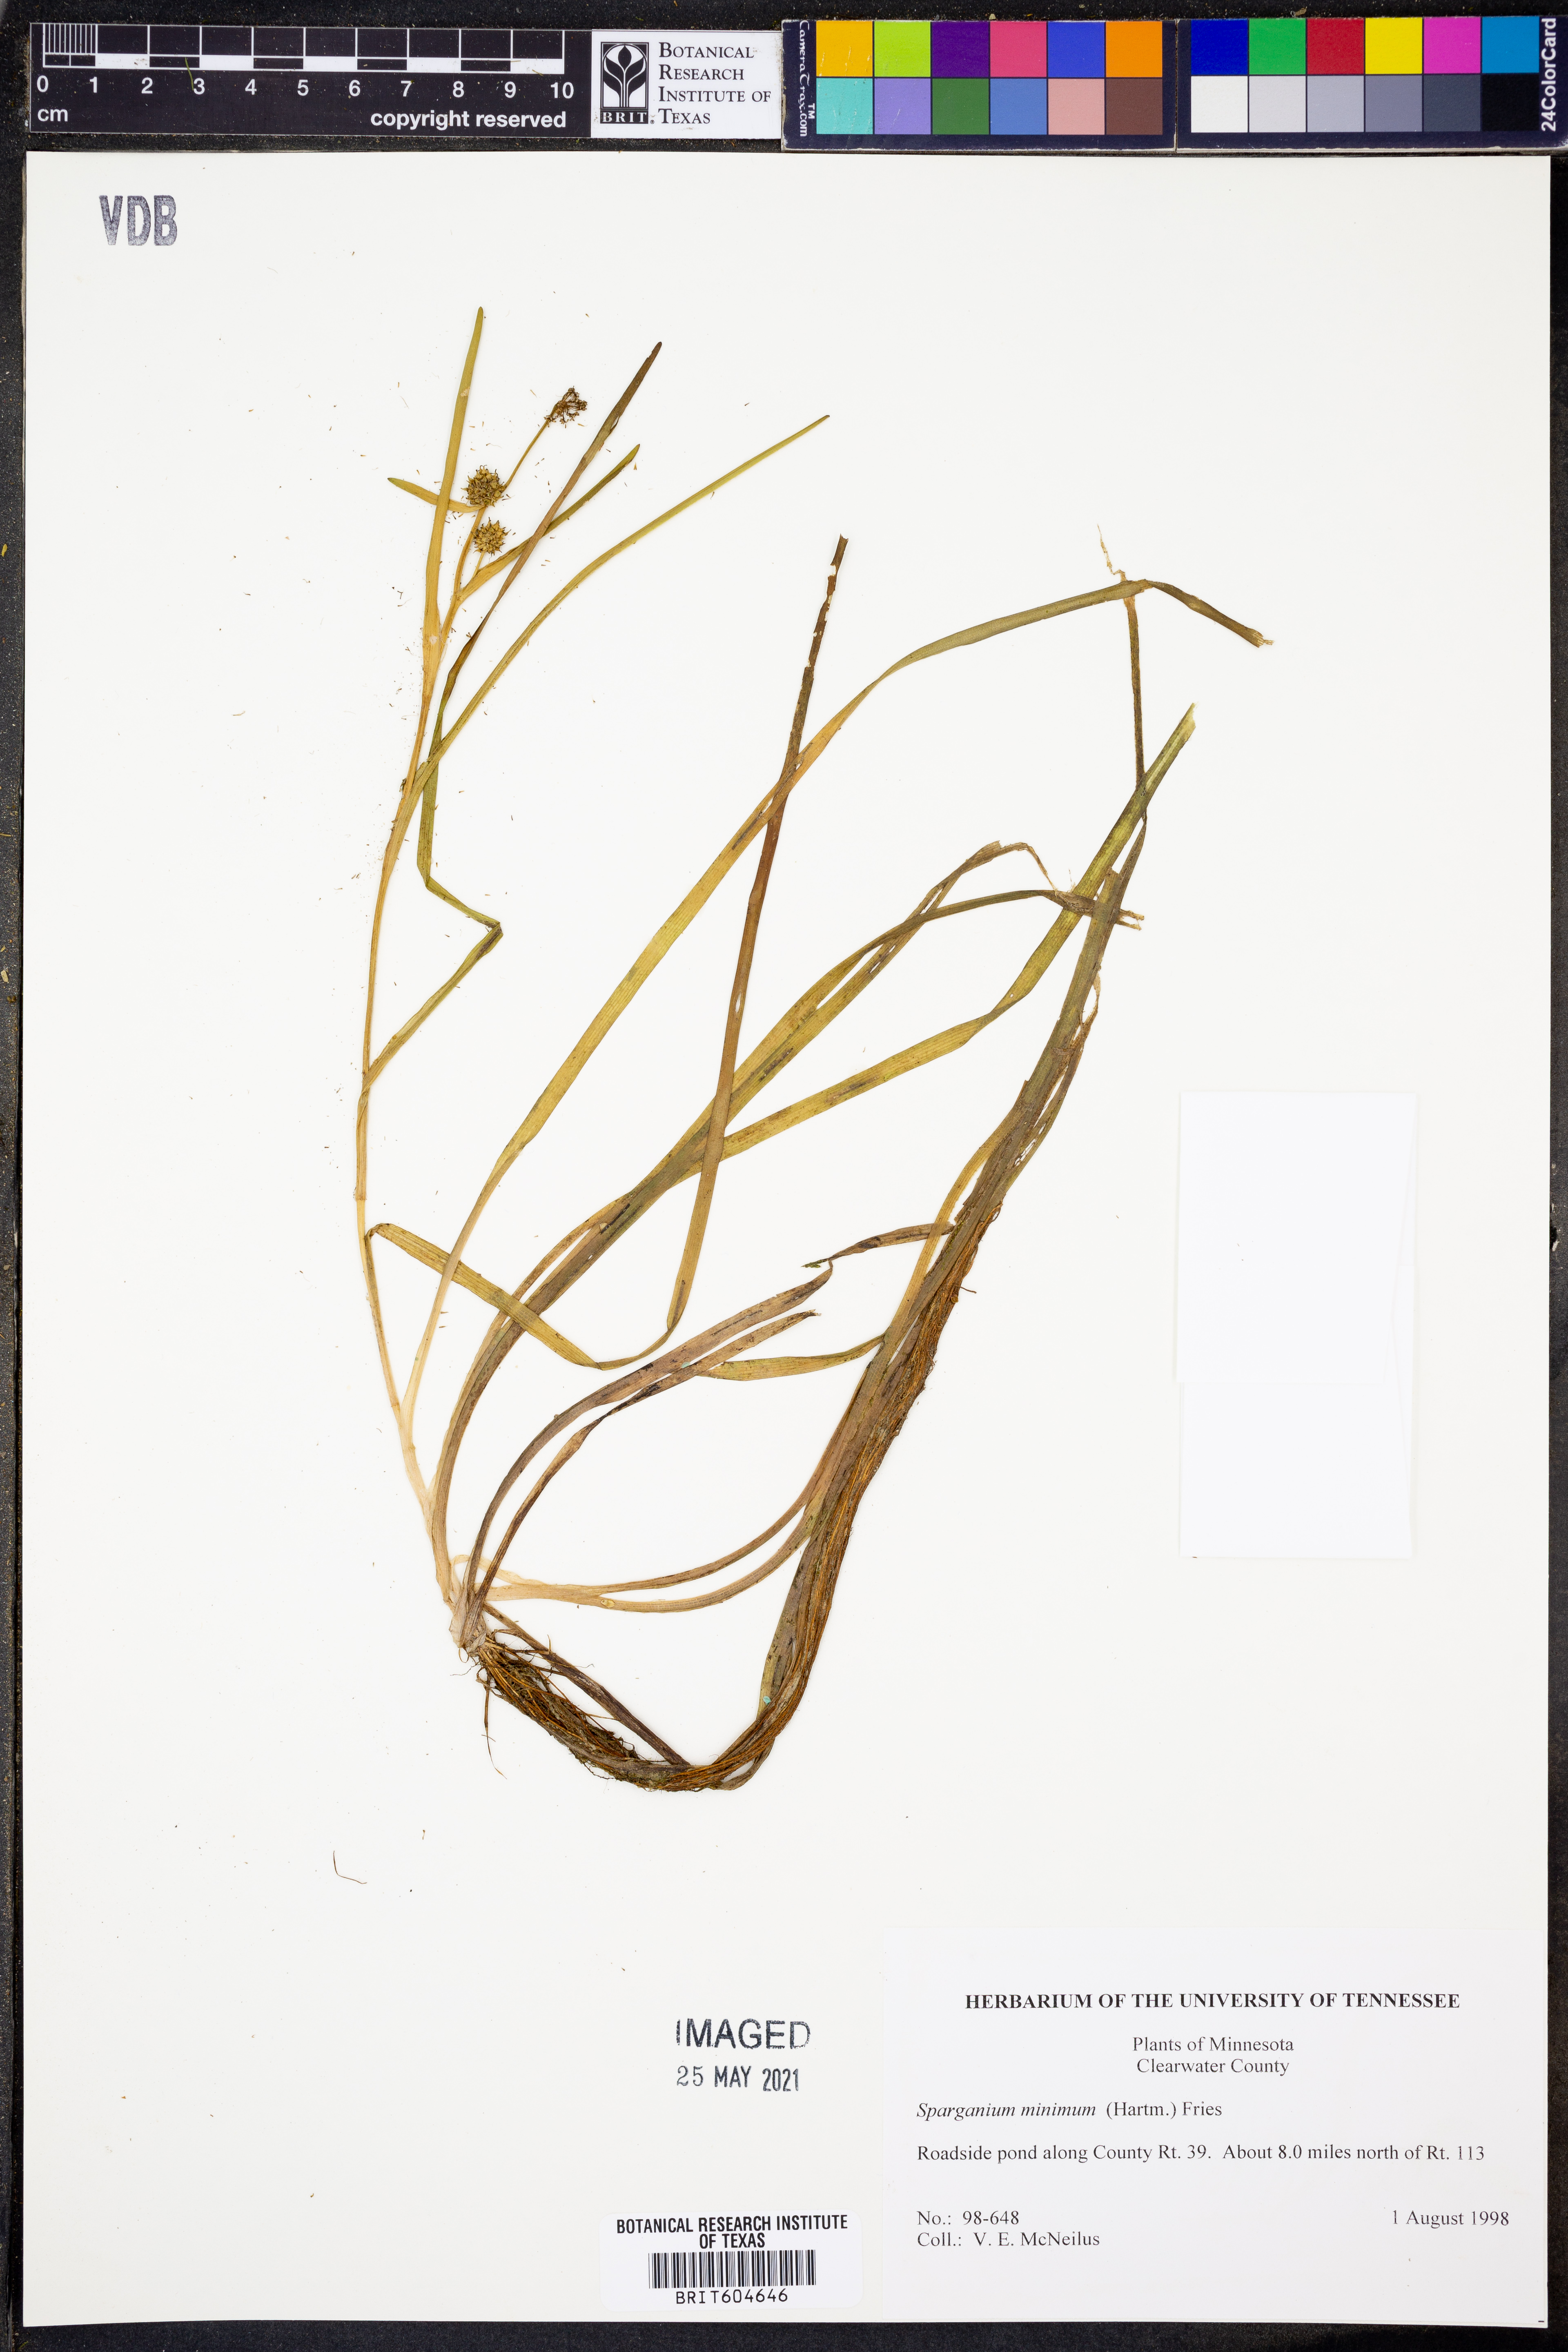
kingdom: Plantae
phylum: Tracheophyta
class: Liliopsida
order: Poales
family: Typhaceae
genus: Sparganium
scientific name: Sparganium natans
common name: Least bur-reed
